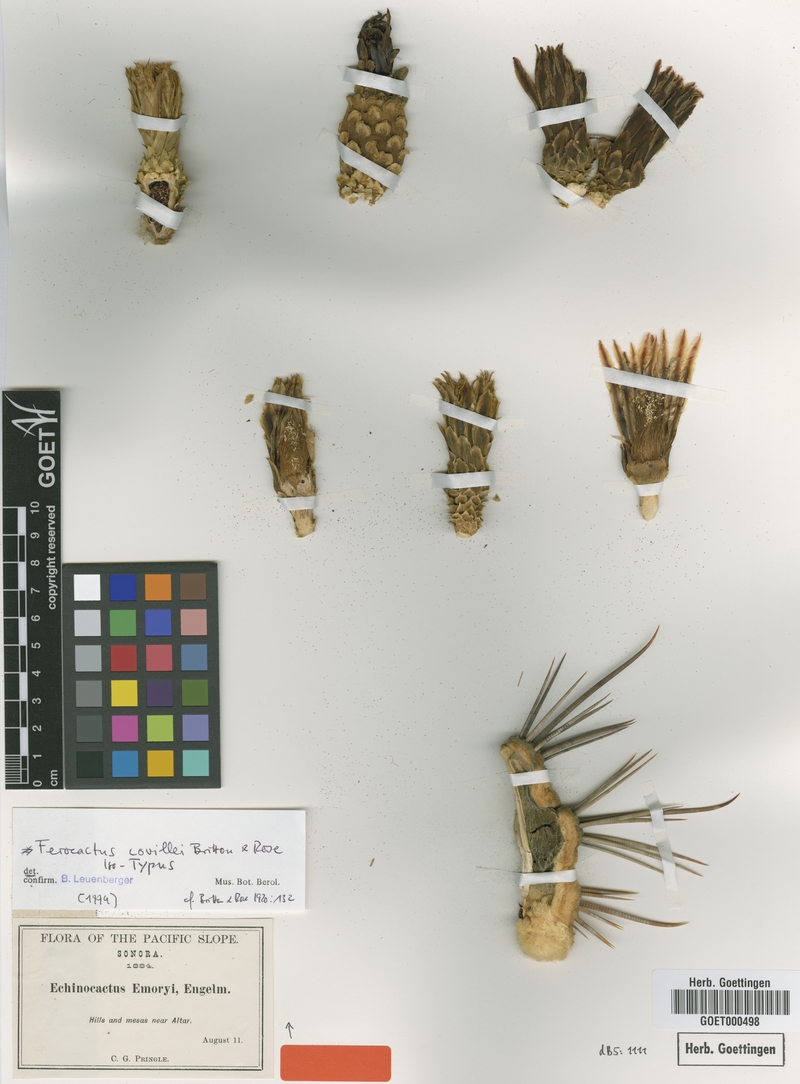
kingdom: Plantae
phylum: Tracheophyta
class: Magnoliopsida
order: Caryophyllales
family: Cactaceae
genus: Ferocactus
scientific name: Ferocactus emoryi
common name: Emory's barrel cactus
